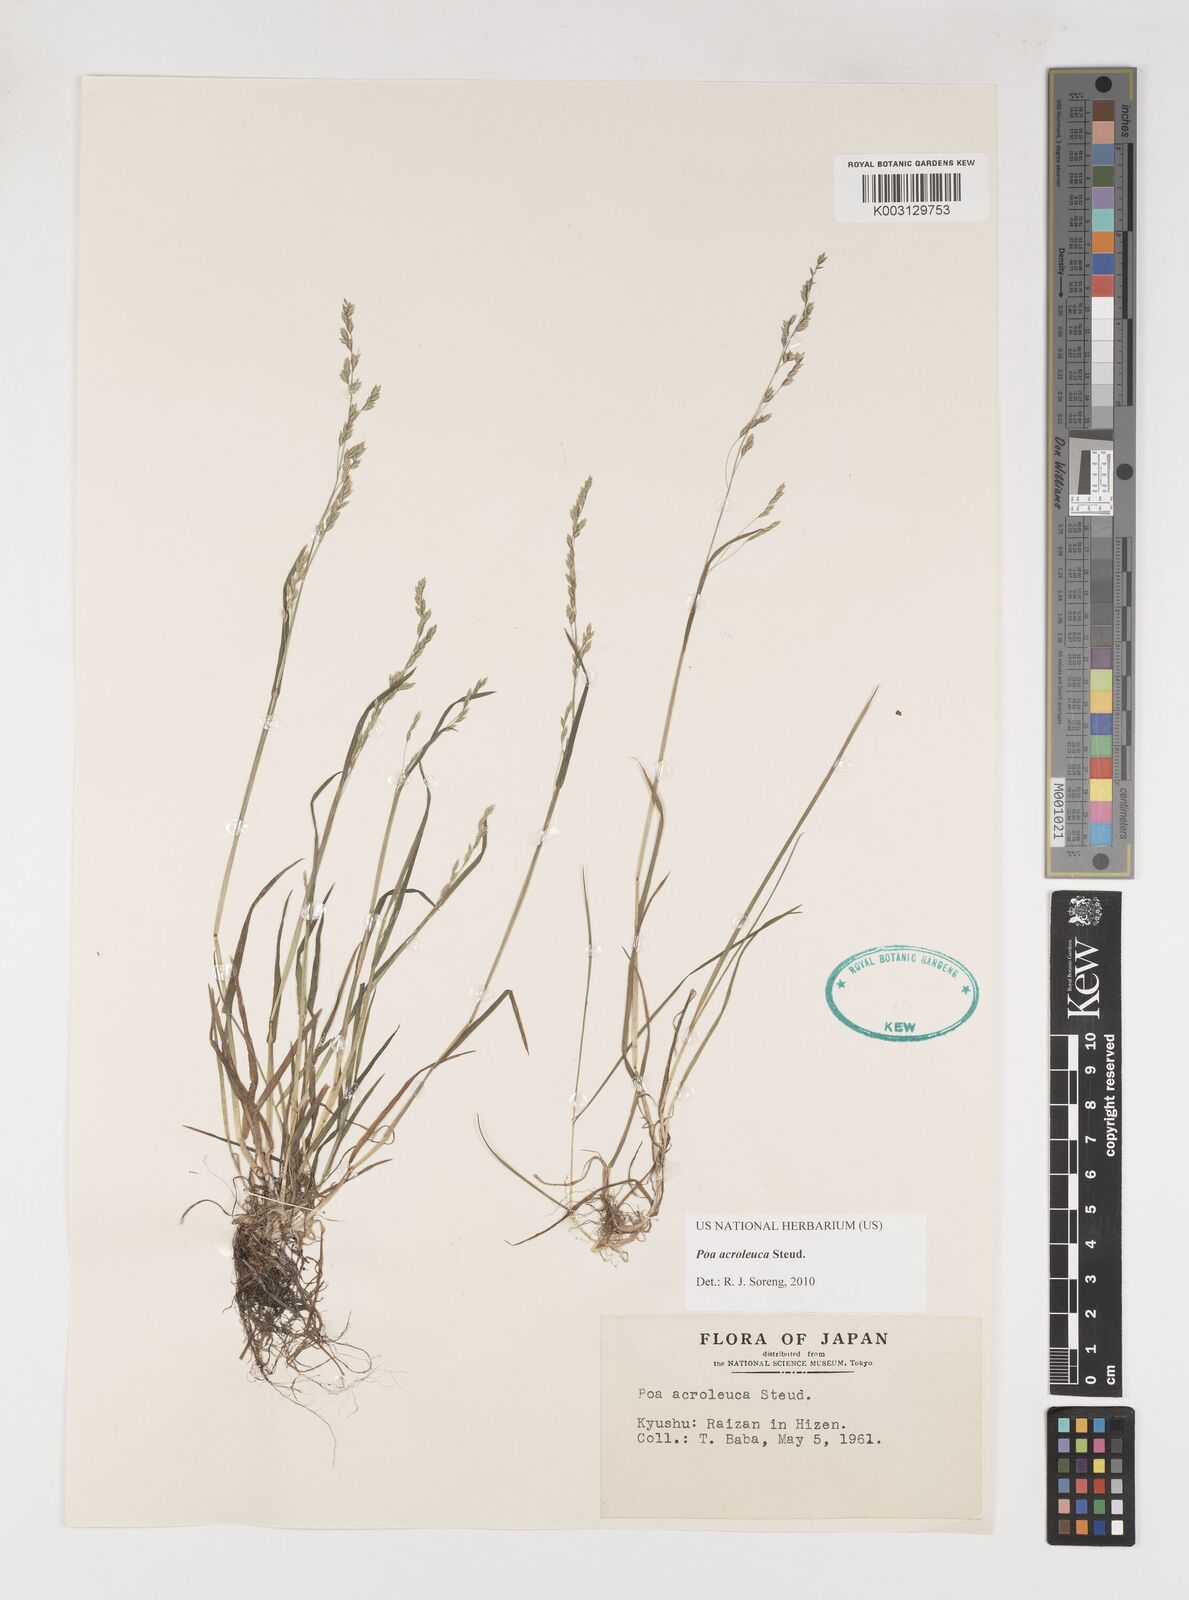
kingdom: Plantae
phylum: Tracheophyta
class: Liliopsida
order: Poales
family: Poaceae
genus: Poa
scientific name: Poa acroleuca
